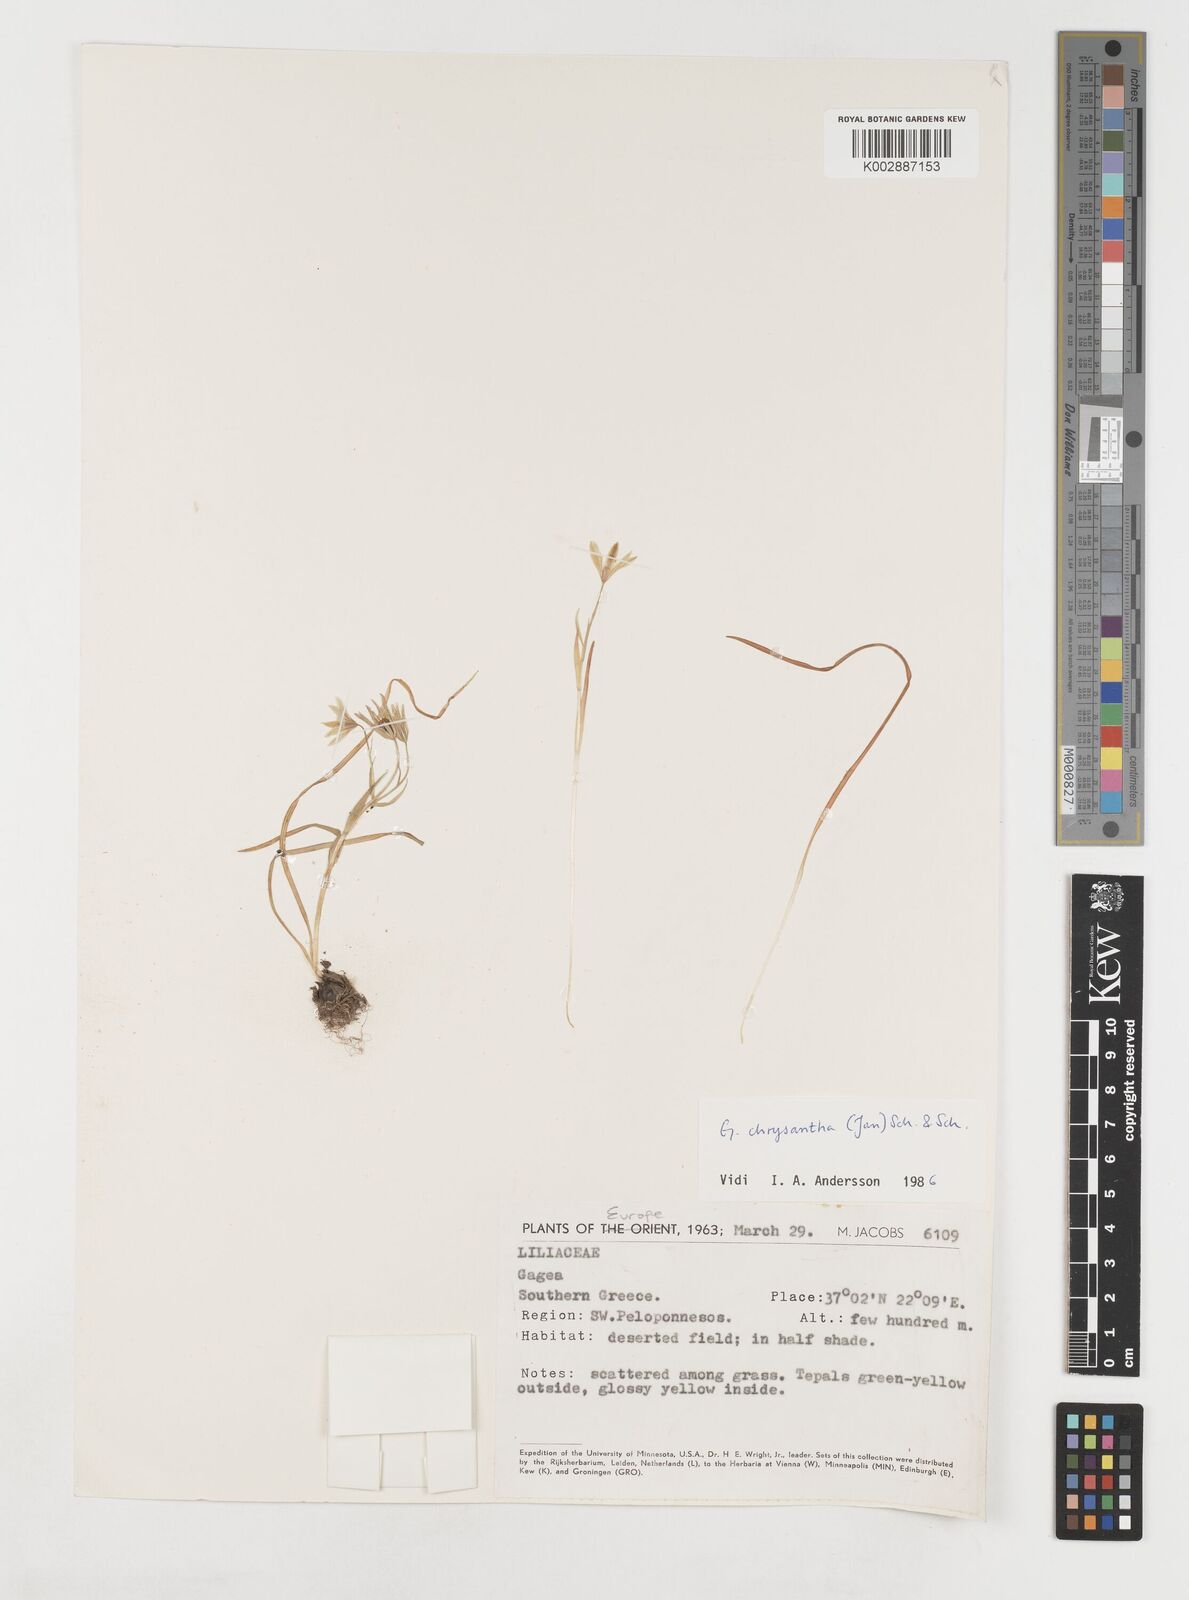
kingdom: Plantae
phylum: Tracheophyta
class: Liliopsida
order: Liliales
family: Liliaceae
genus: Gagea
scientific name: Gagea
